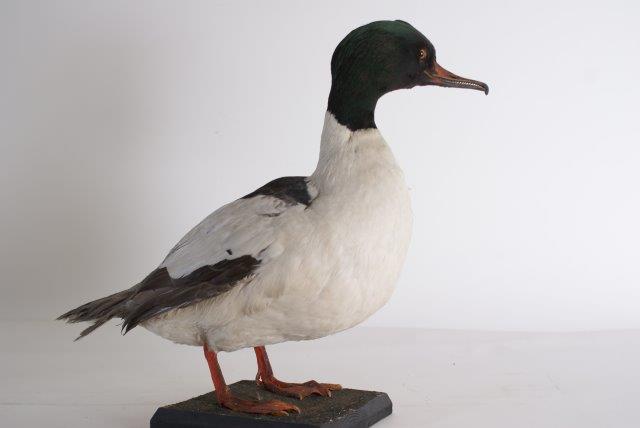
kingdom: Animalia
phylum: Chordata
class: Aves
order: Anseriformes
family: Anatidae
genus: Mergus
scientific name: Mergus merganser
